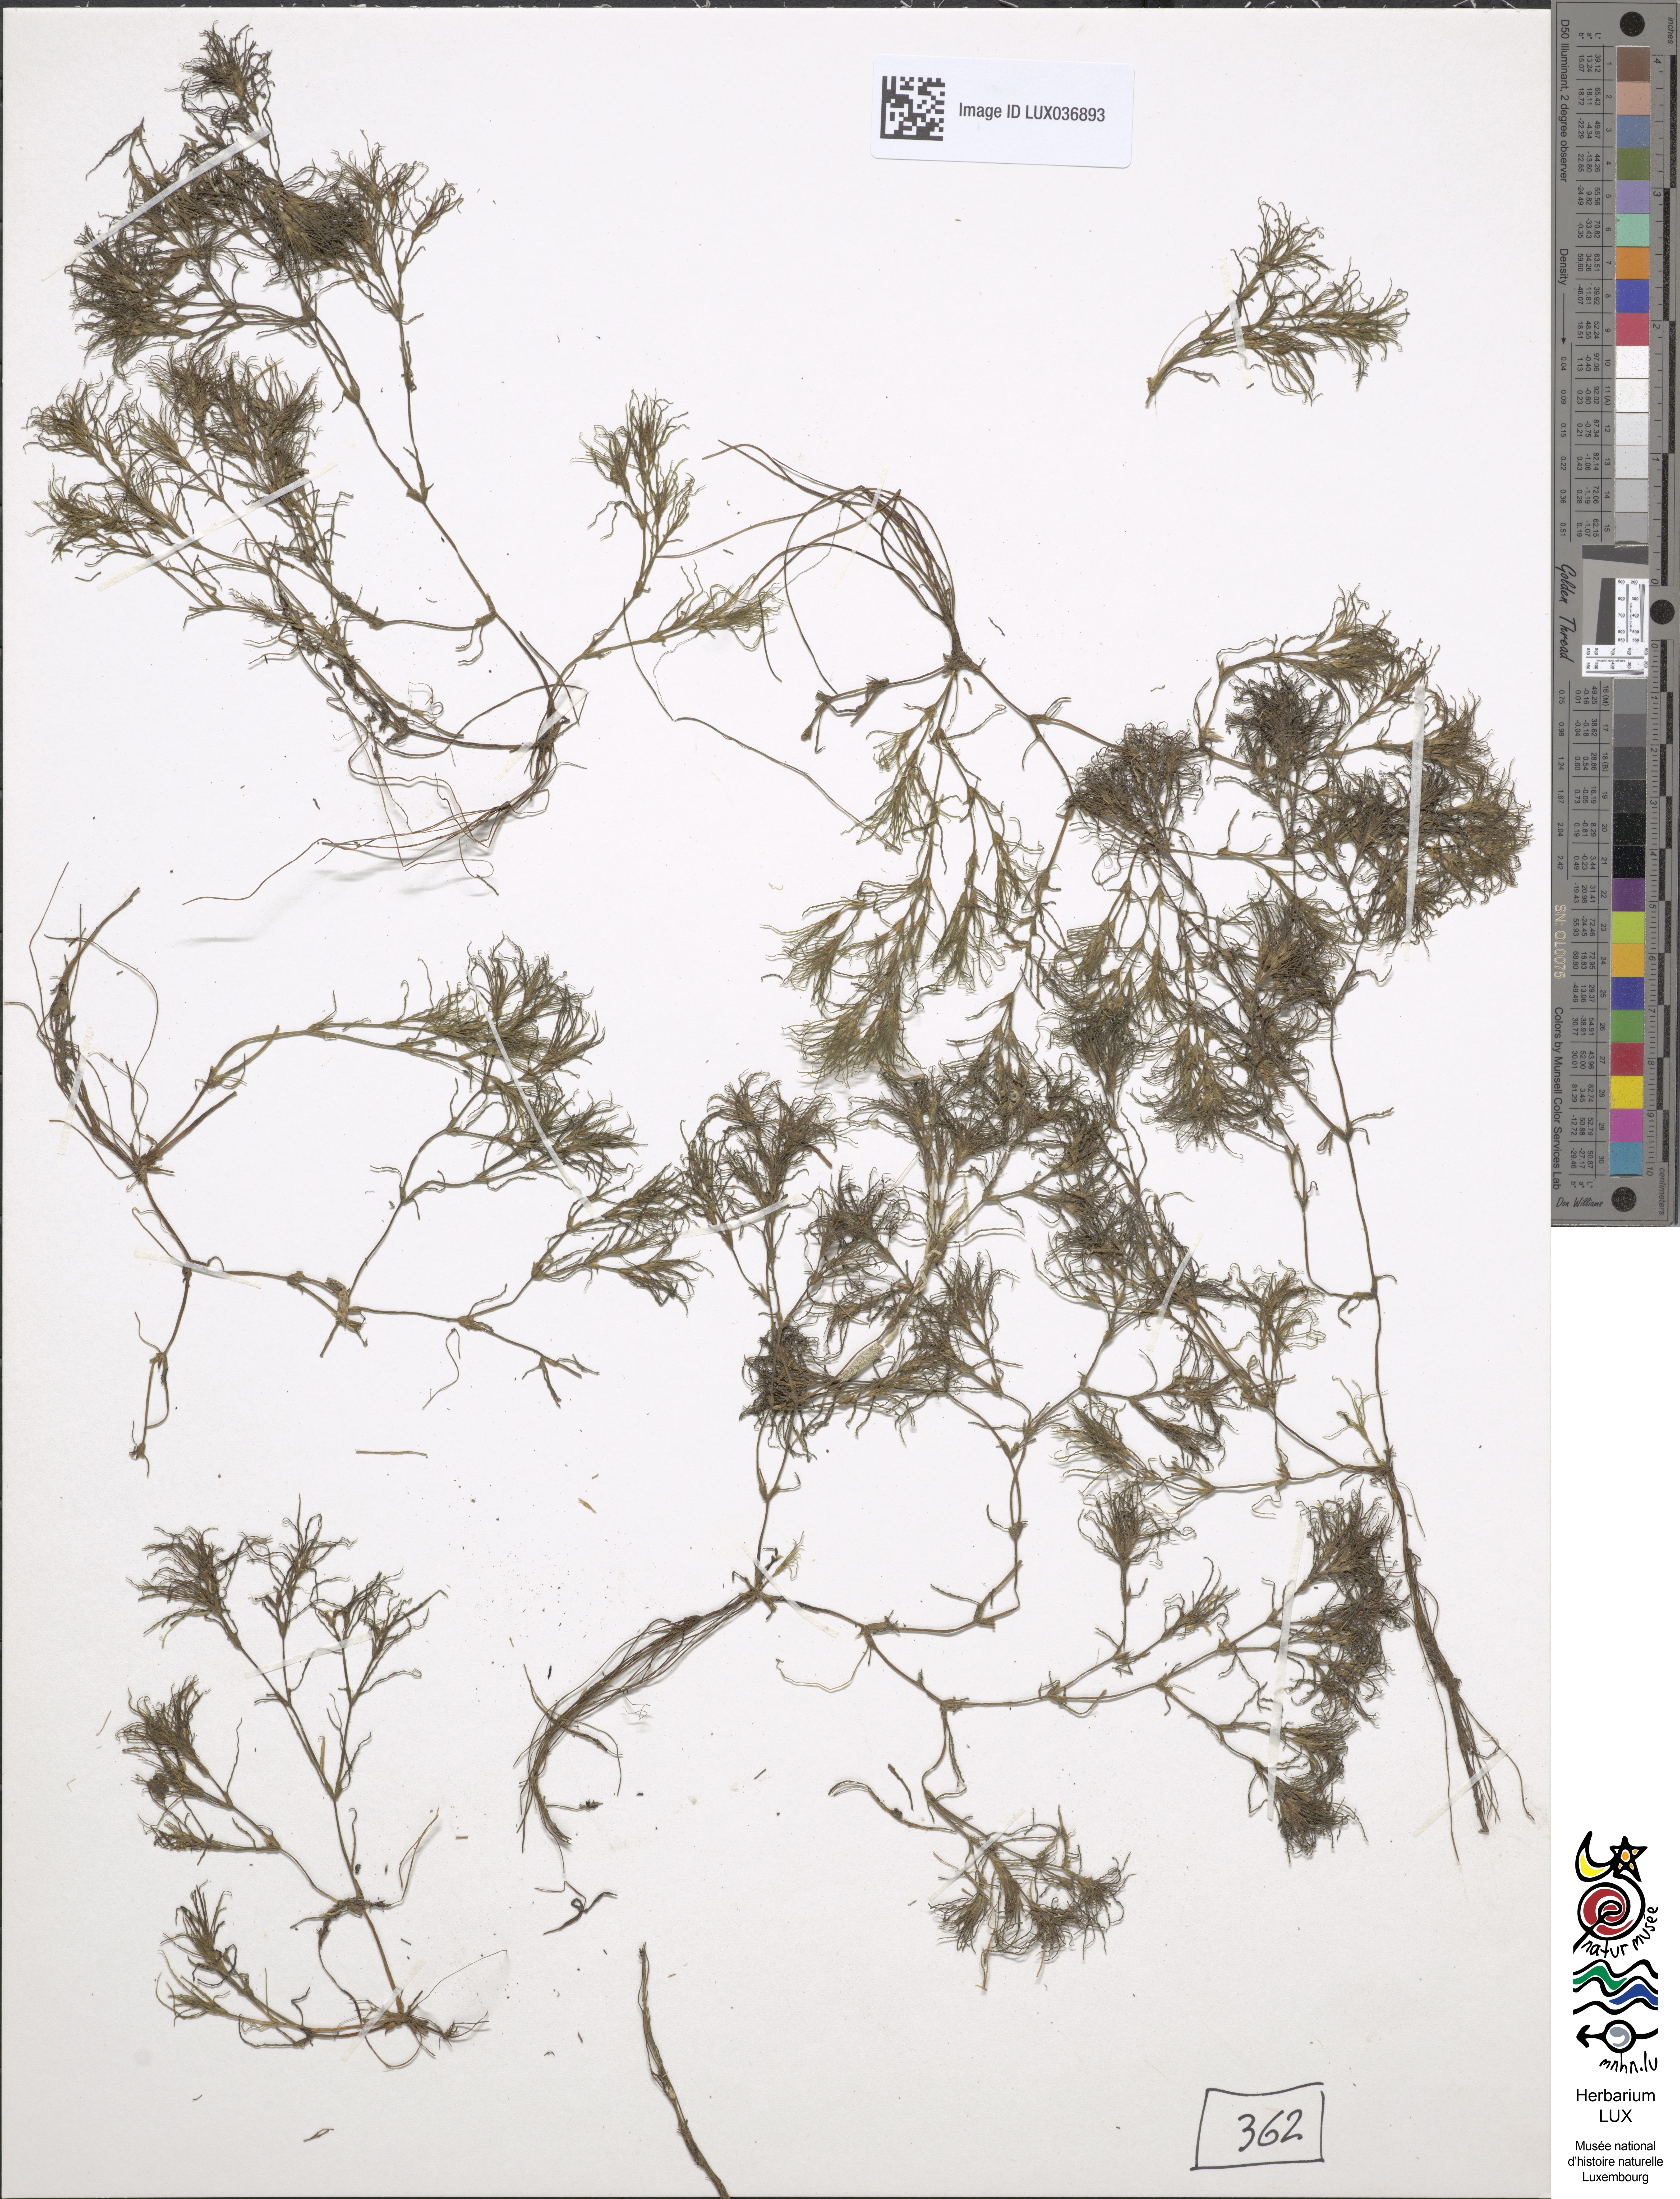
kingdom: Plantae
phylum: Tracheophyta
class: Liliopsida
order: Alismatales
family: Hydrocharitaceae
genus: Najas
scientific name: Najas minor
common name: Brittle naiad
